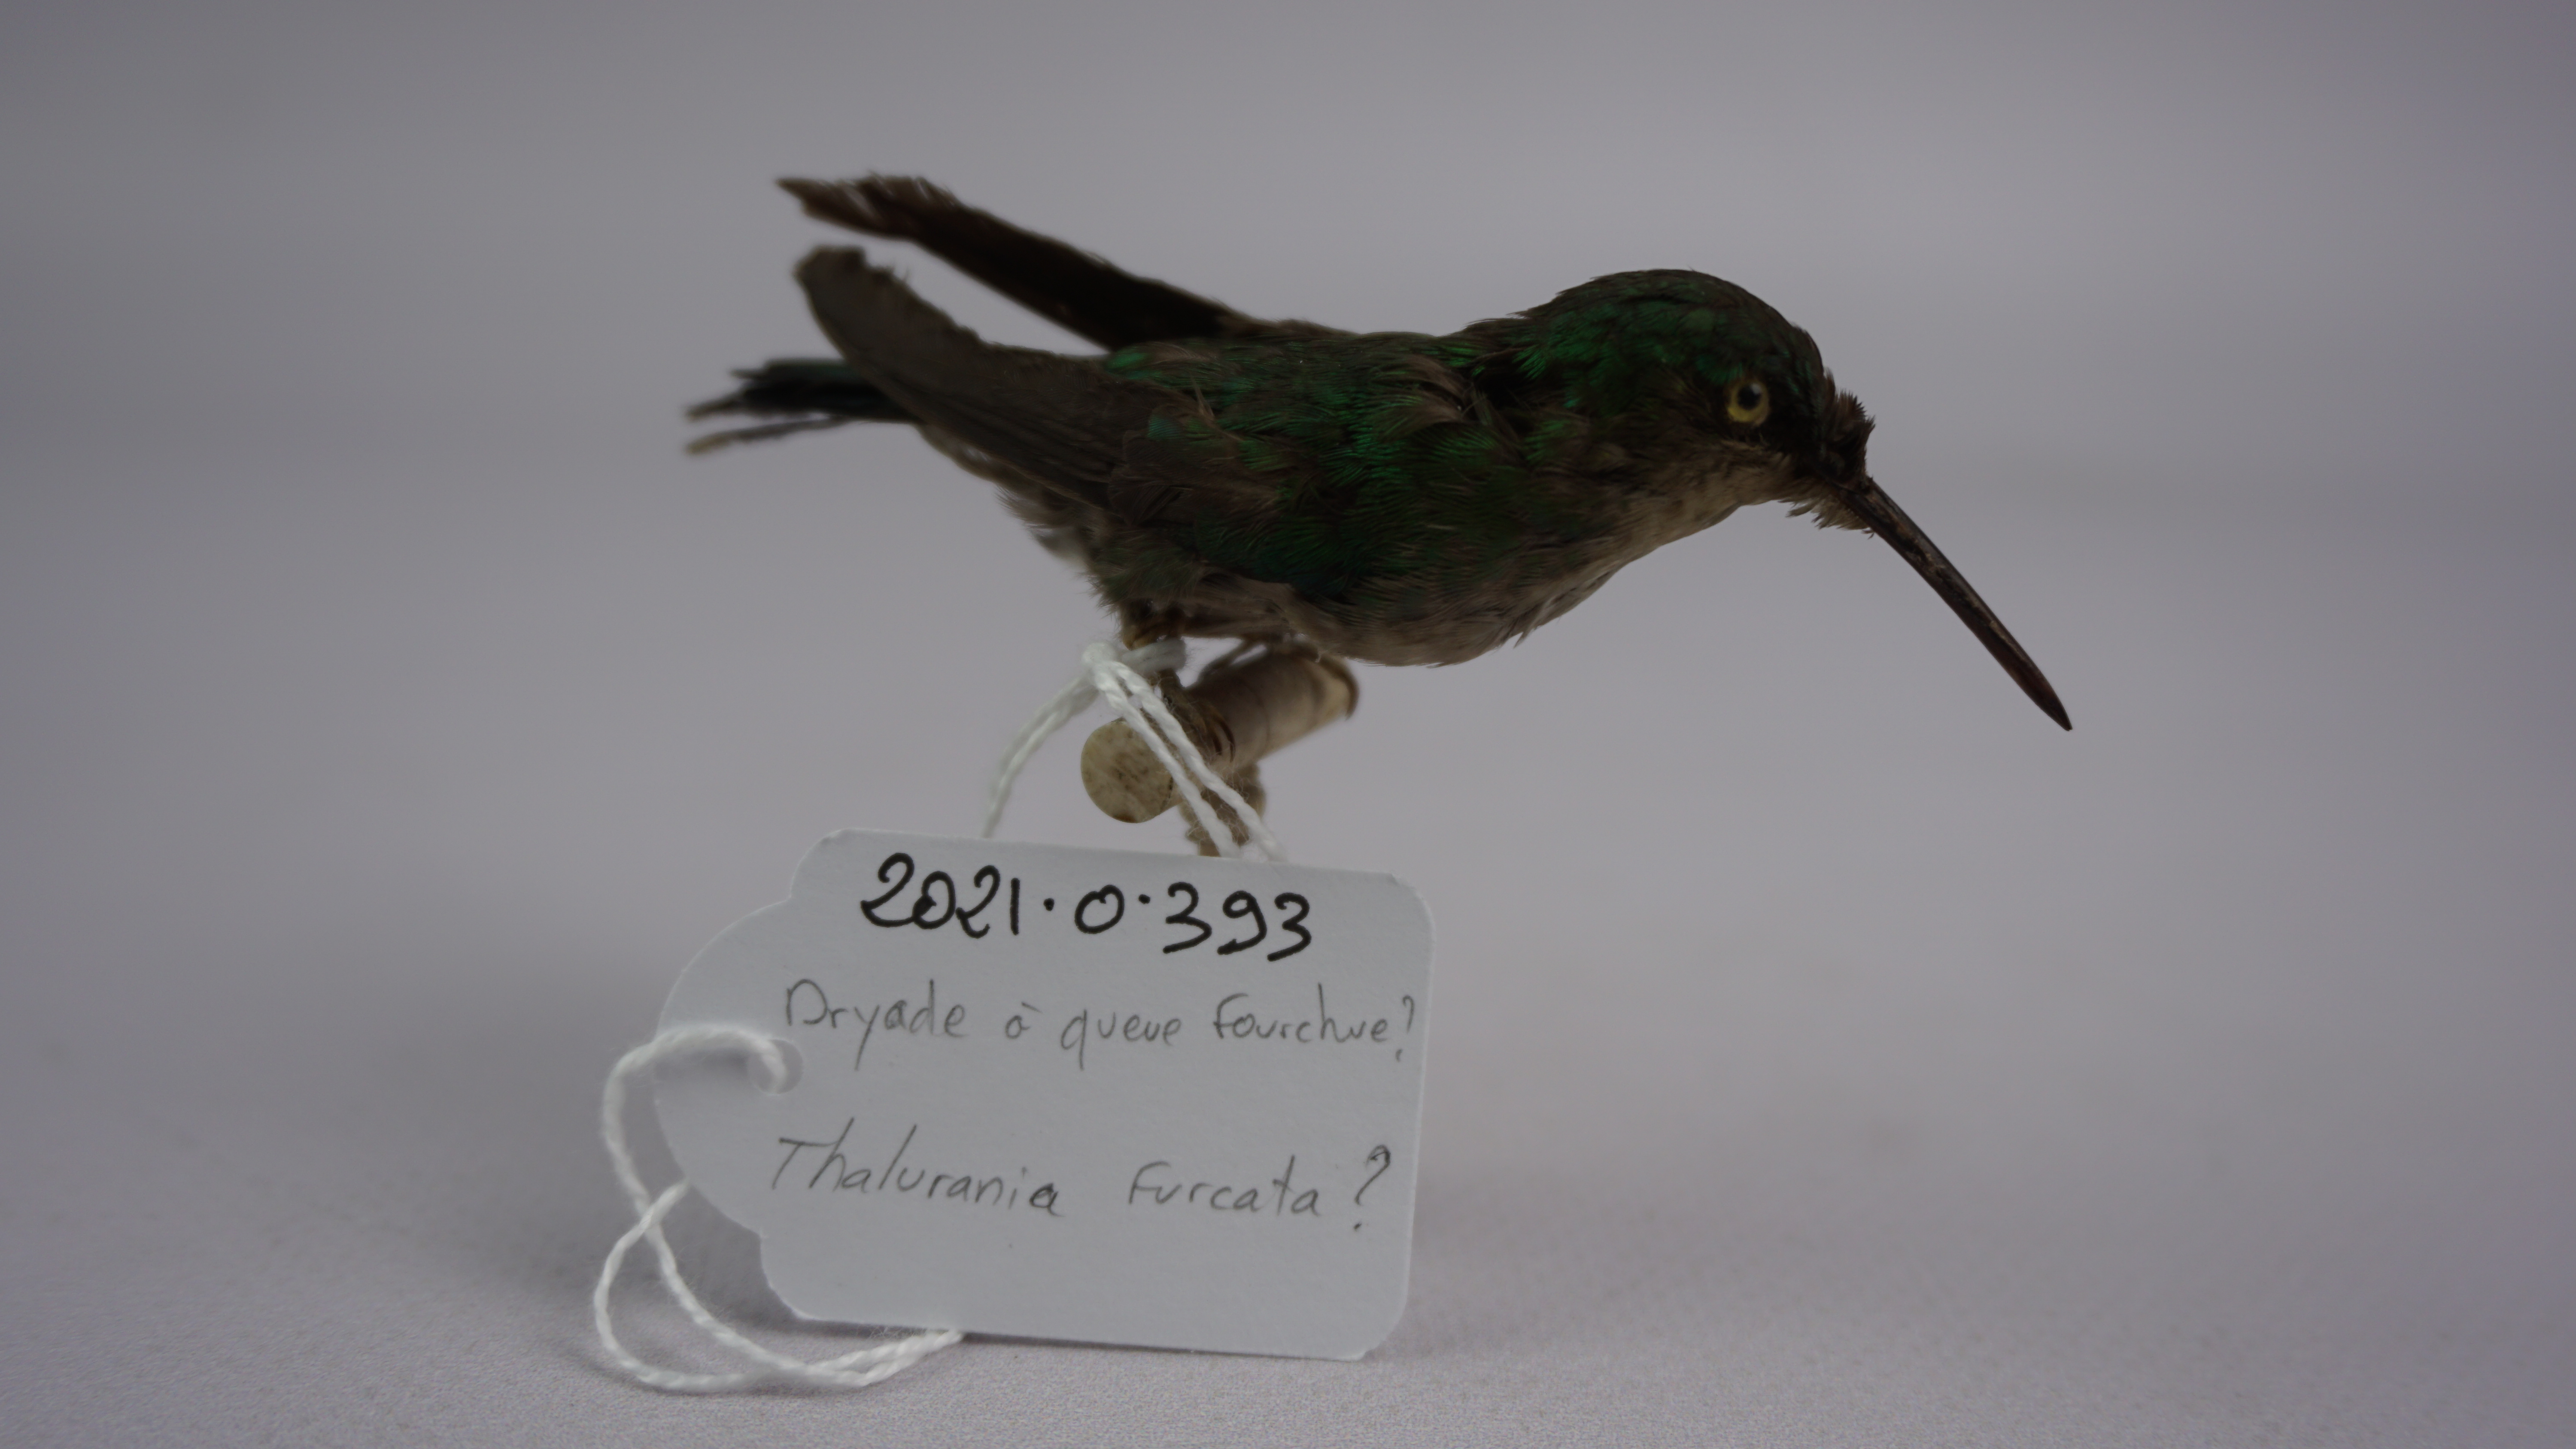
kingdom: Animalia
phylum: Chordata
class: Aves
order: Apodiformes
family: Trochilidae
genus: Thalurania
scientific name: Thalurania furcata
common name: Fork-tailed woodnymph
